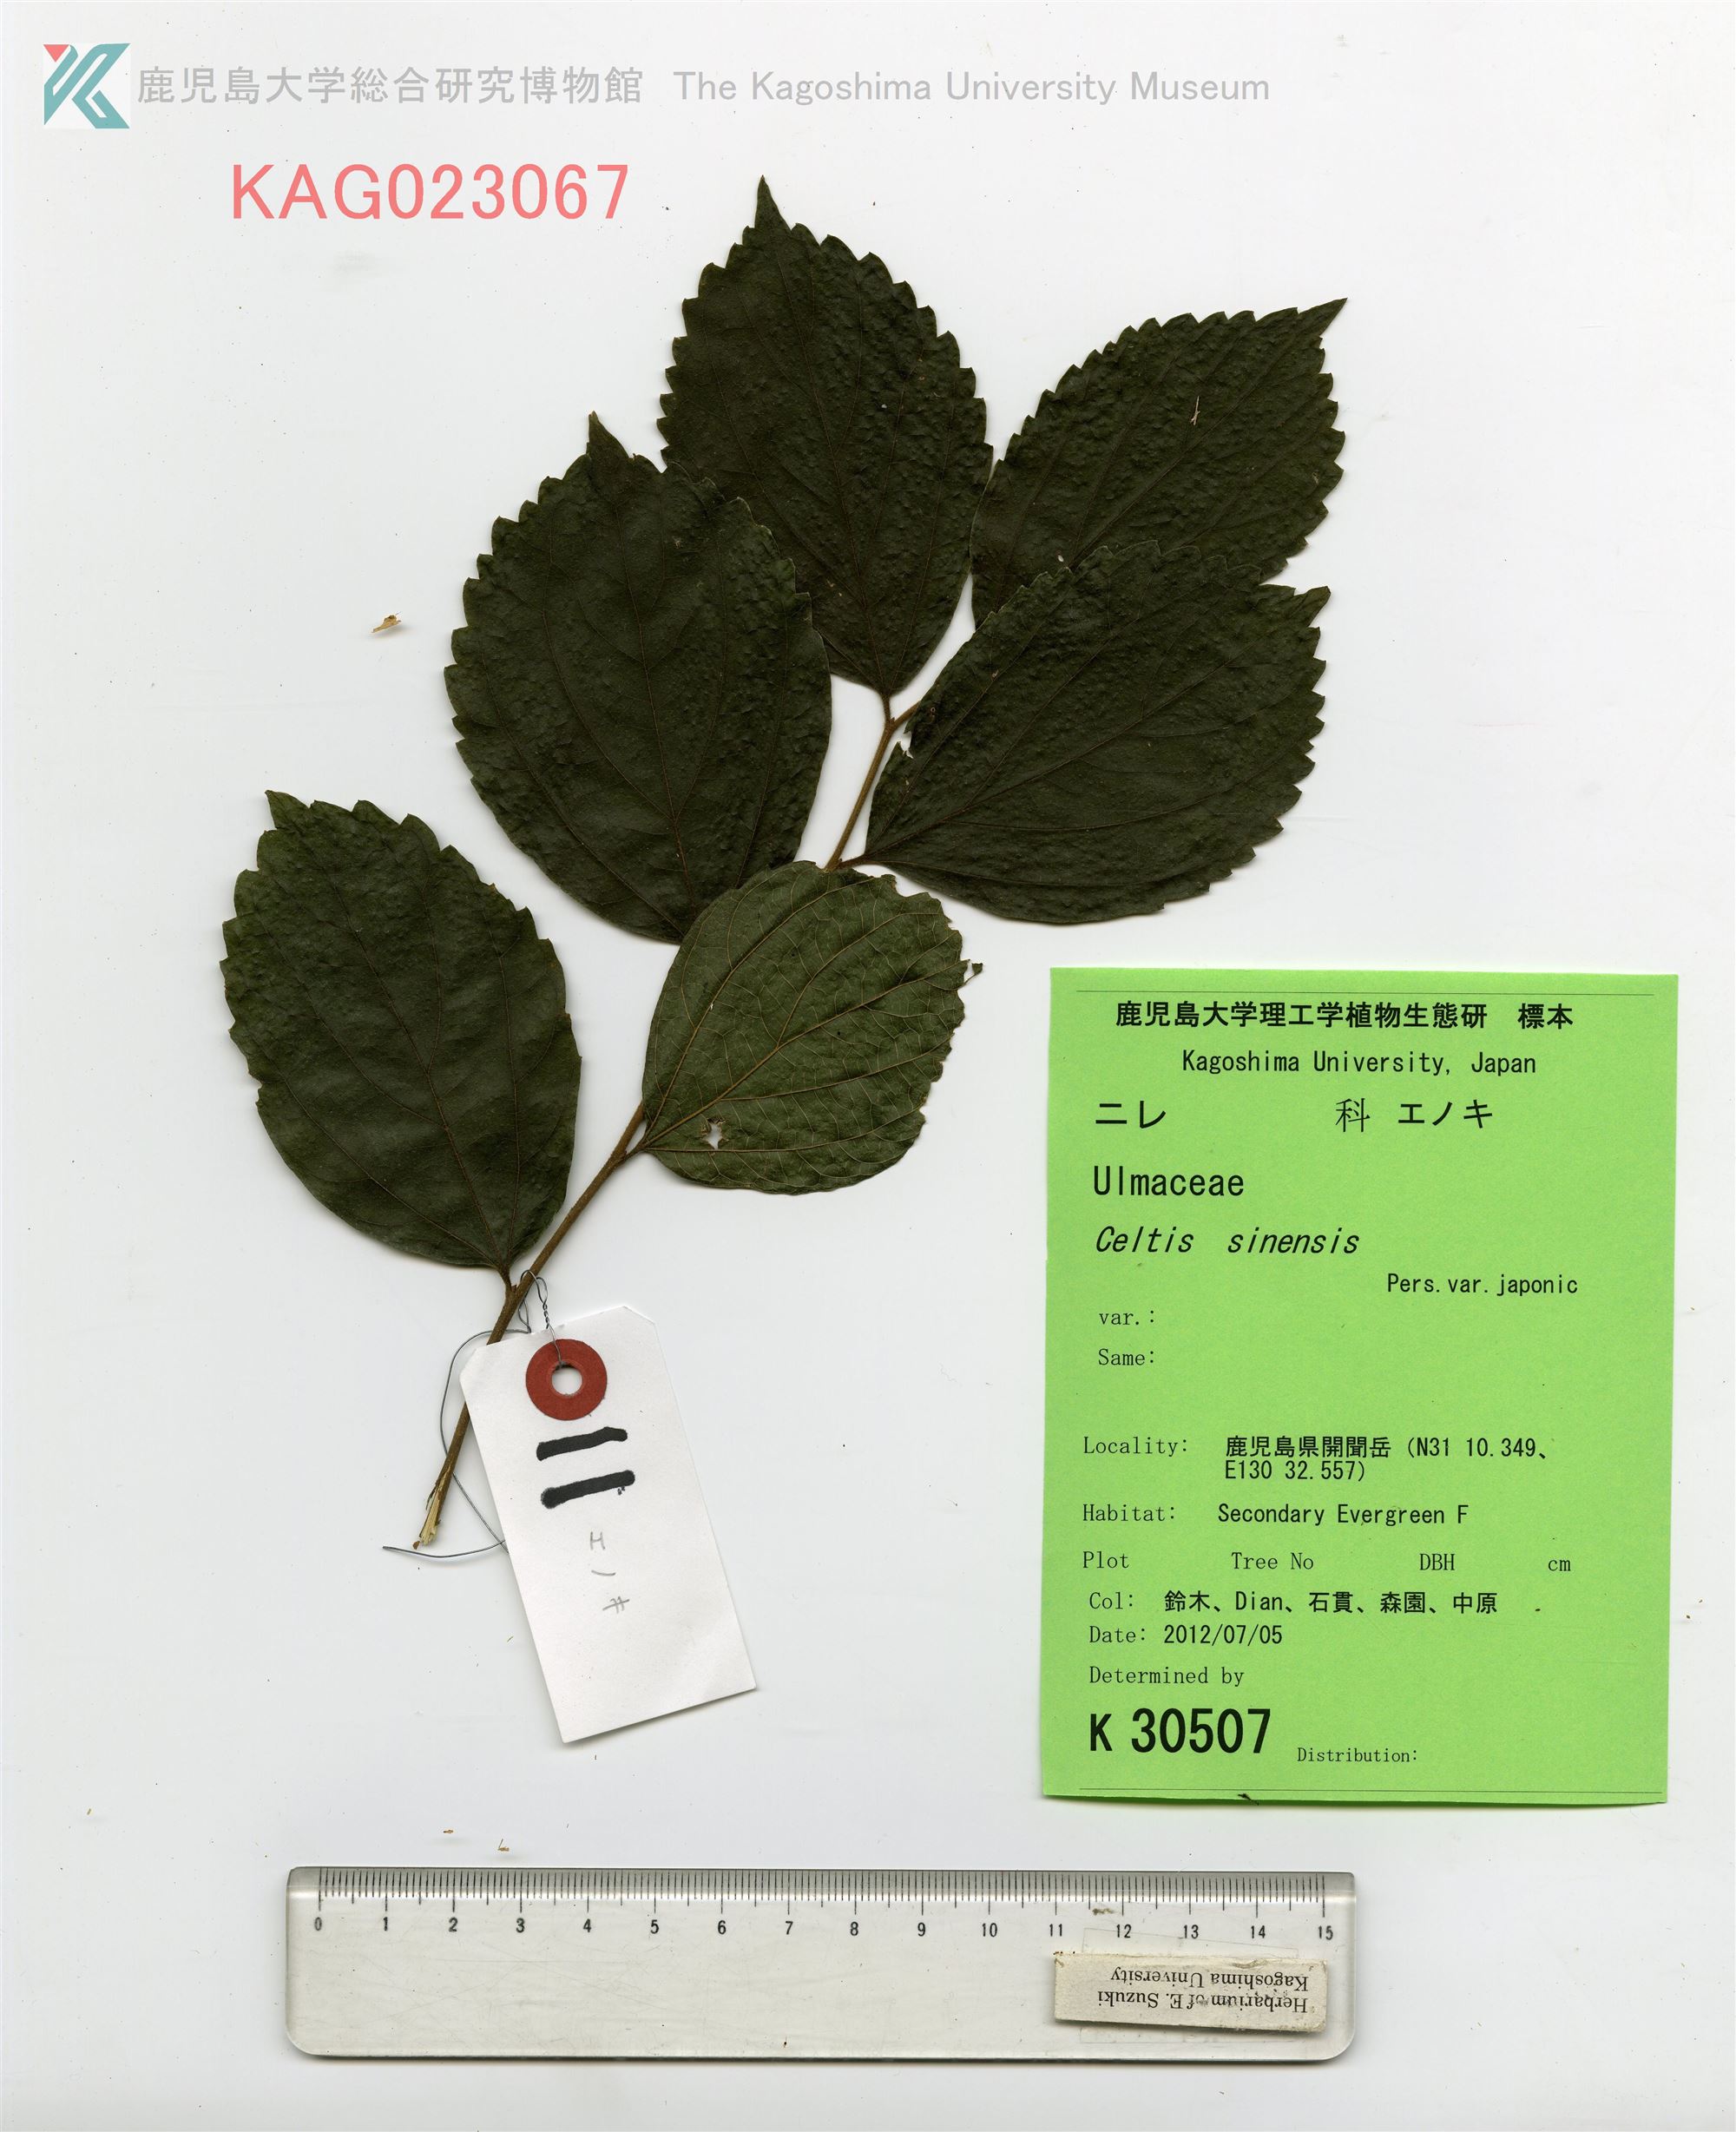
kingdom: Plantae
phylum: Tracheophyta
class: Magnoliopsida
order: Rosales
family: Cannabaceae
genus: Celtis
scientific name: Celtis sinensis
